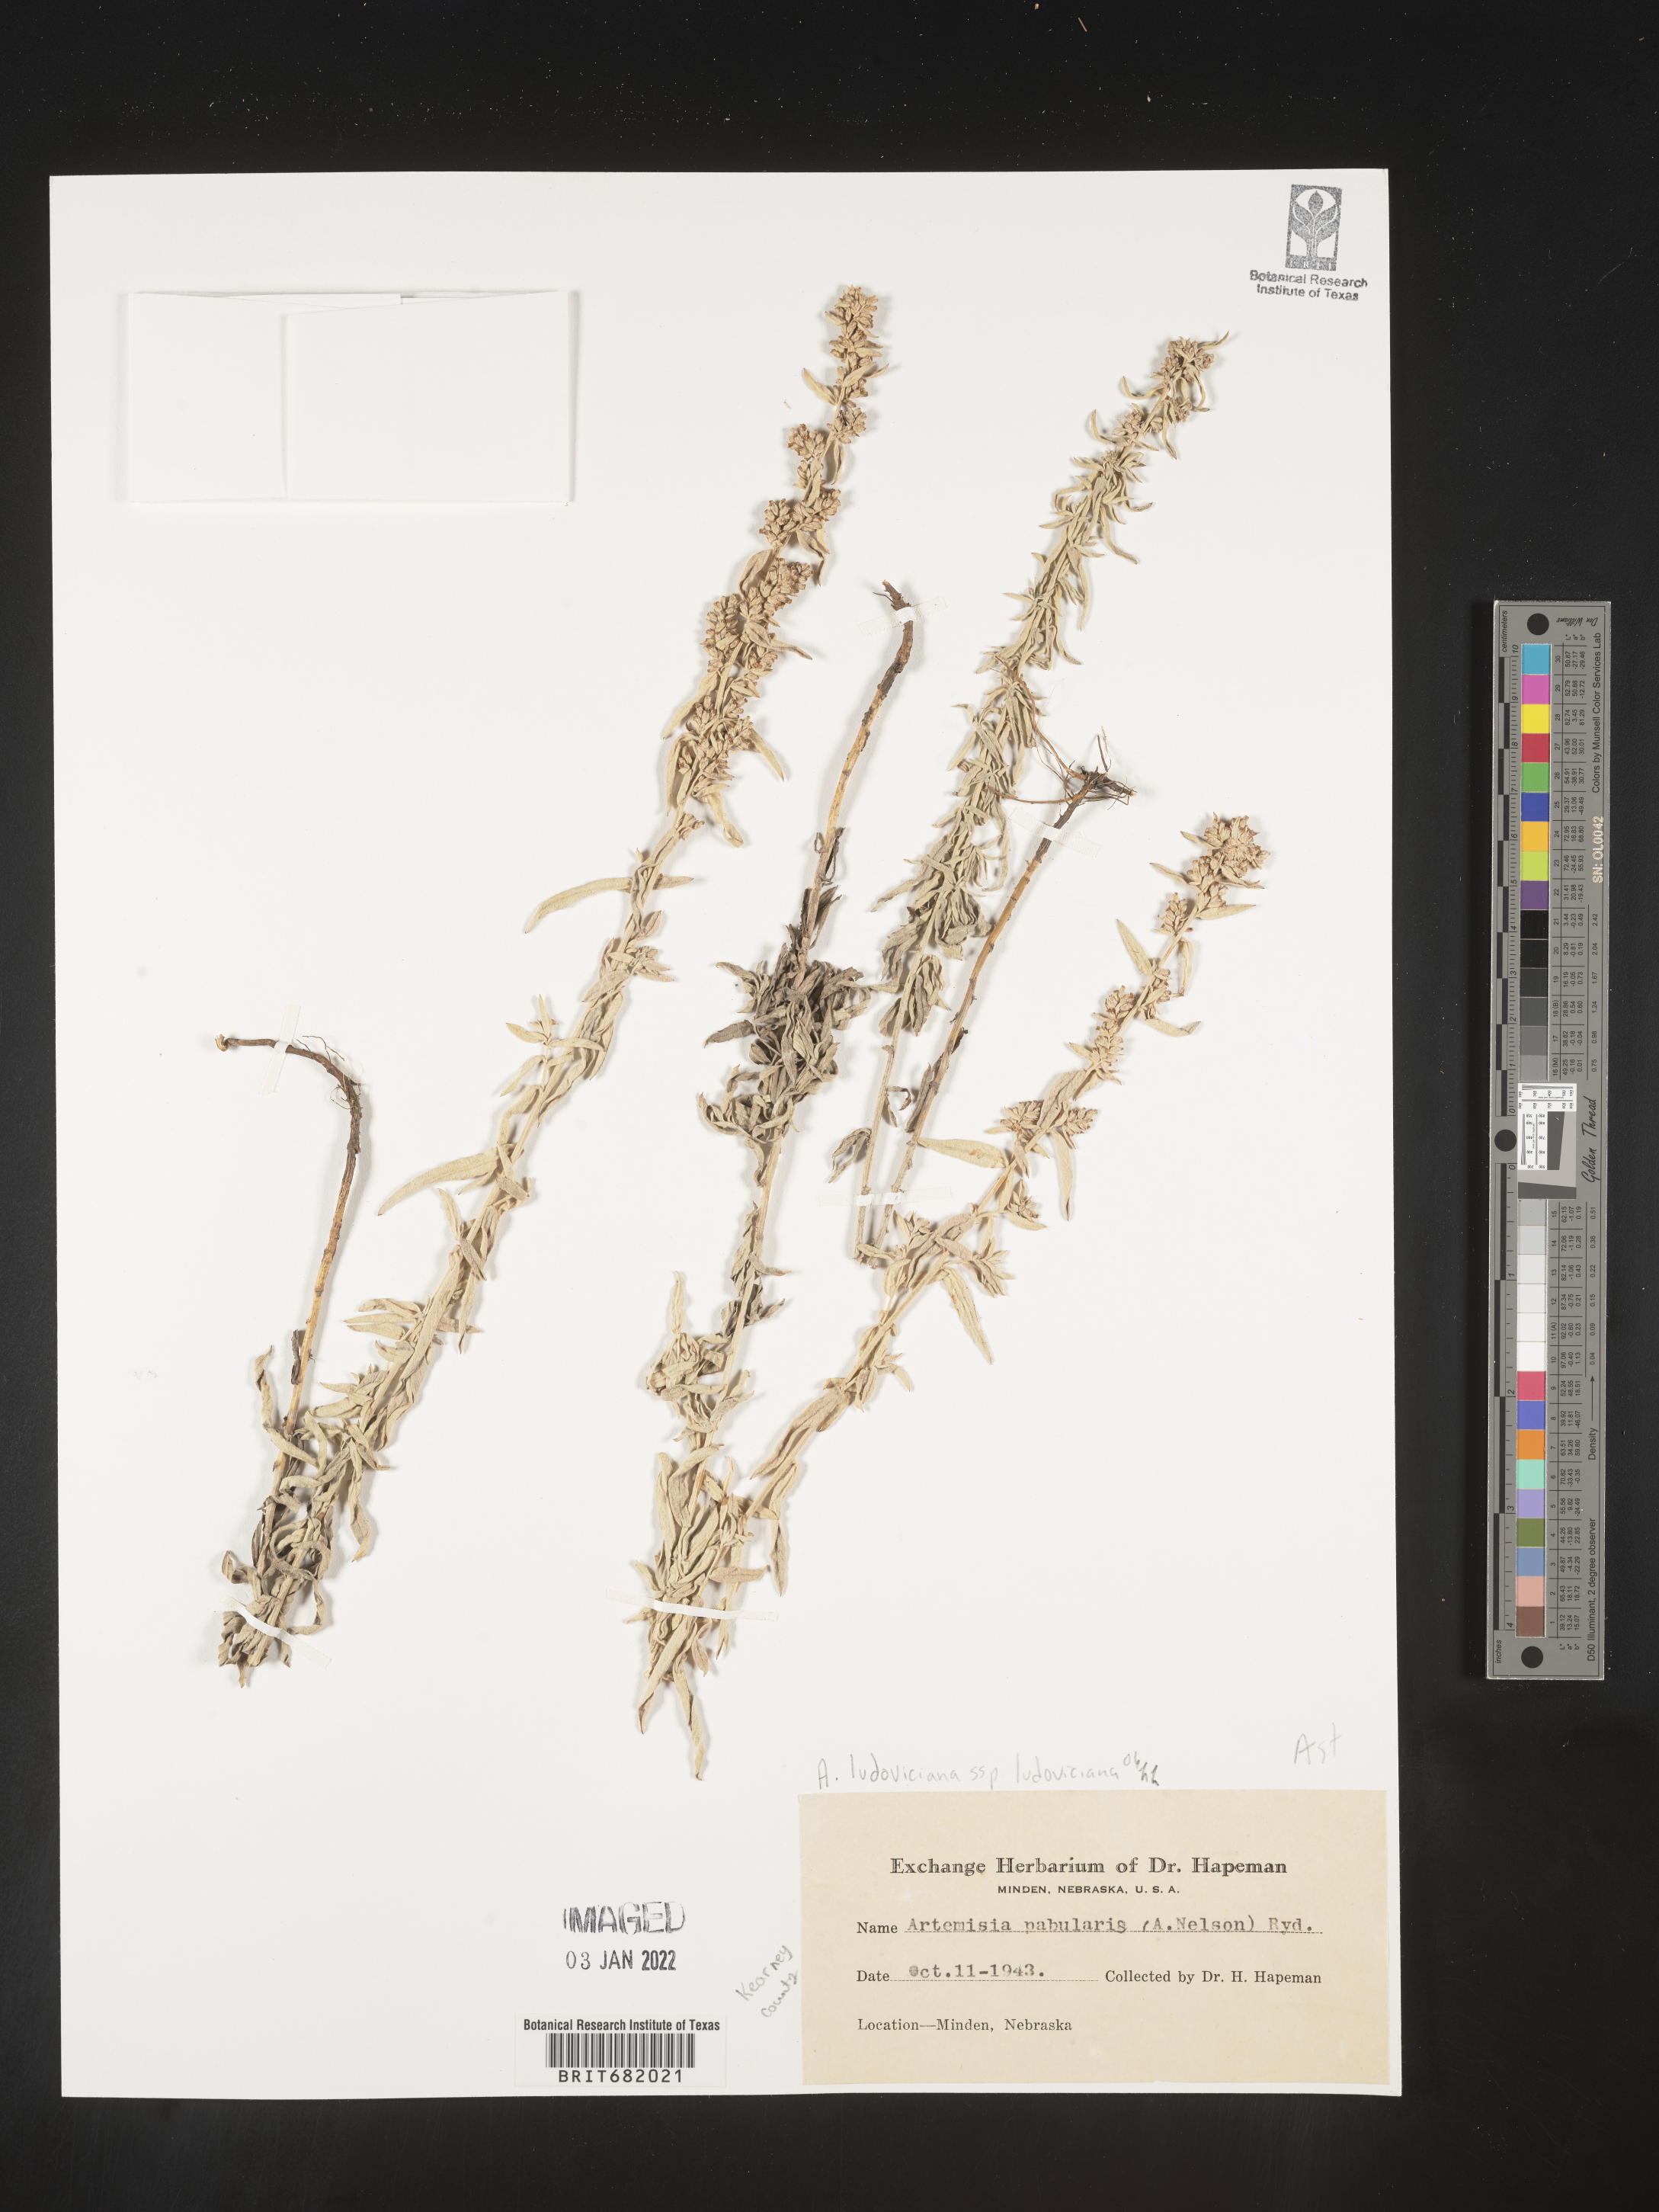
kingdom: Plantae
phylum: Tracheophyta
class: Magnoliopsida
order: Asterales
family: Asteraceae
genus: Artemisia
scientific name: Artemisia ludoviciana
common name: Western mugwort
